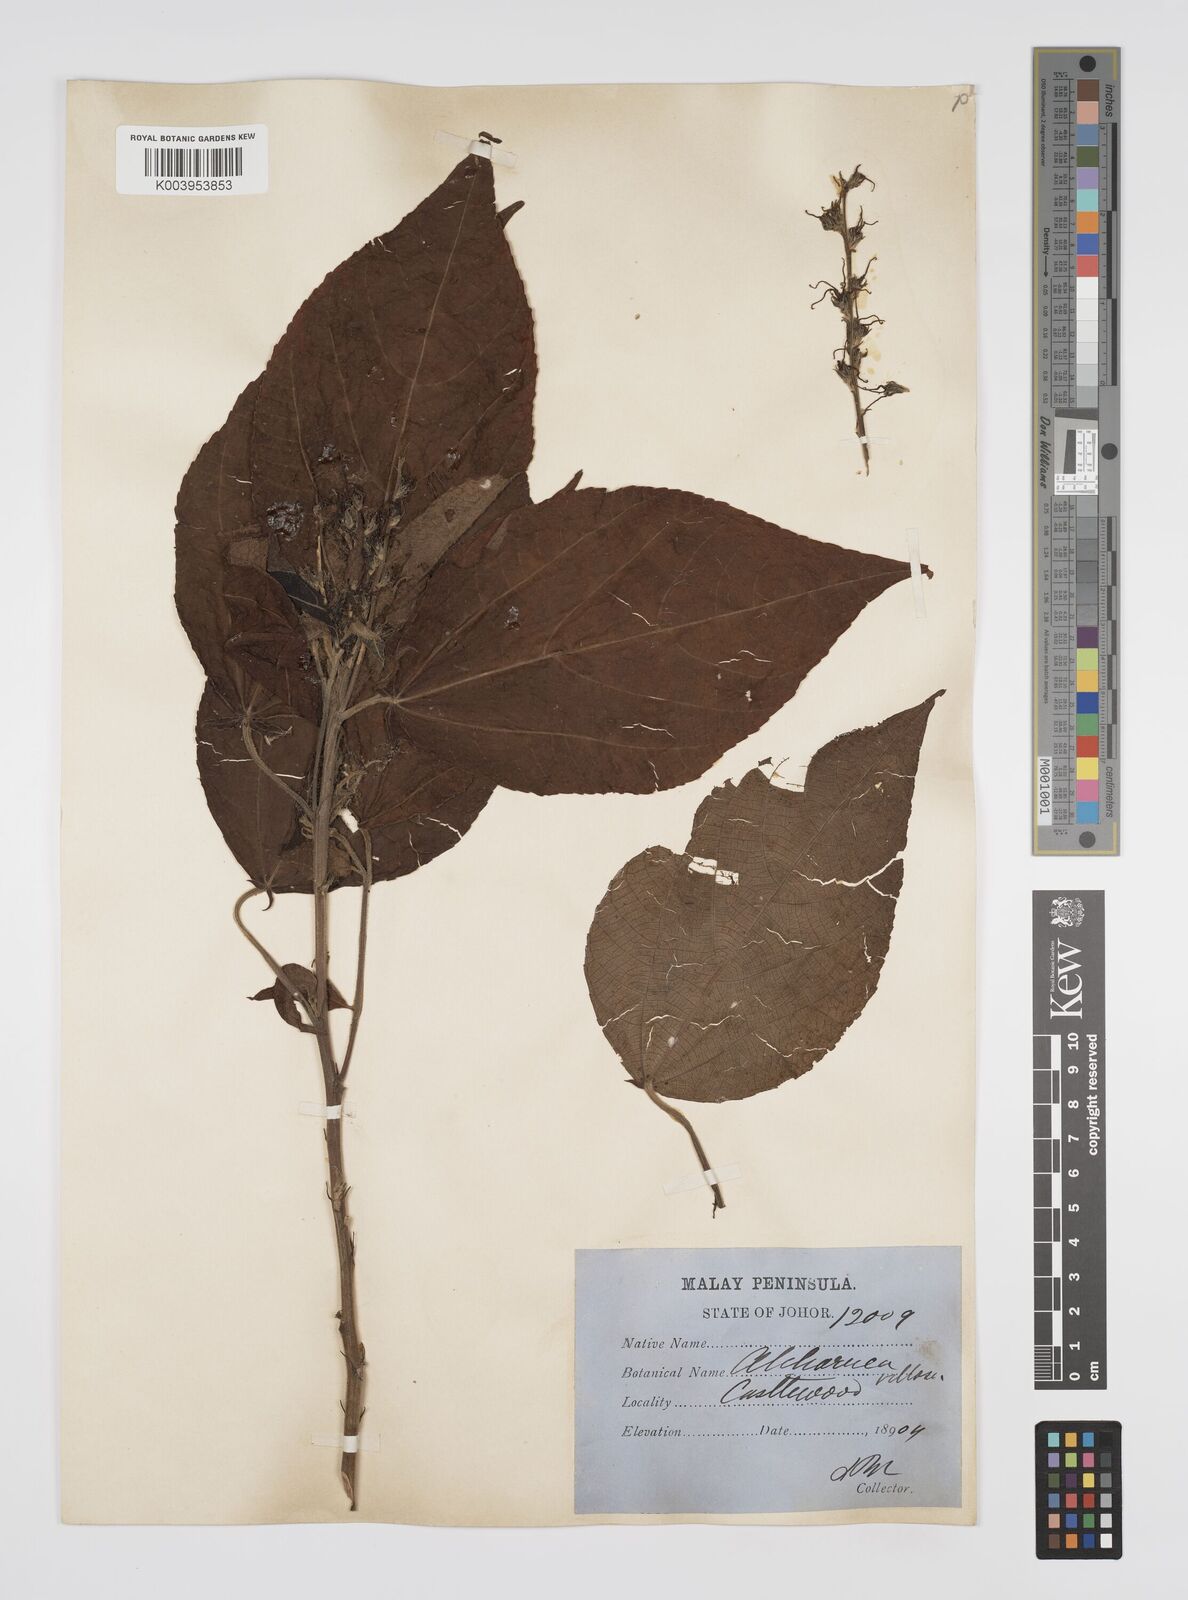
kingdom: Plantae
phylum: Tracheophyta
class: Magnoliopsida
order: Malpighiales
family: Euphorbiaceae
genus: Alchornea
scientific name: Alchornea tiliifolia
